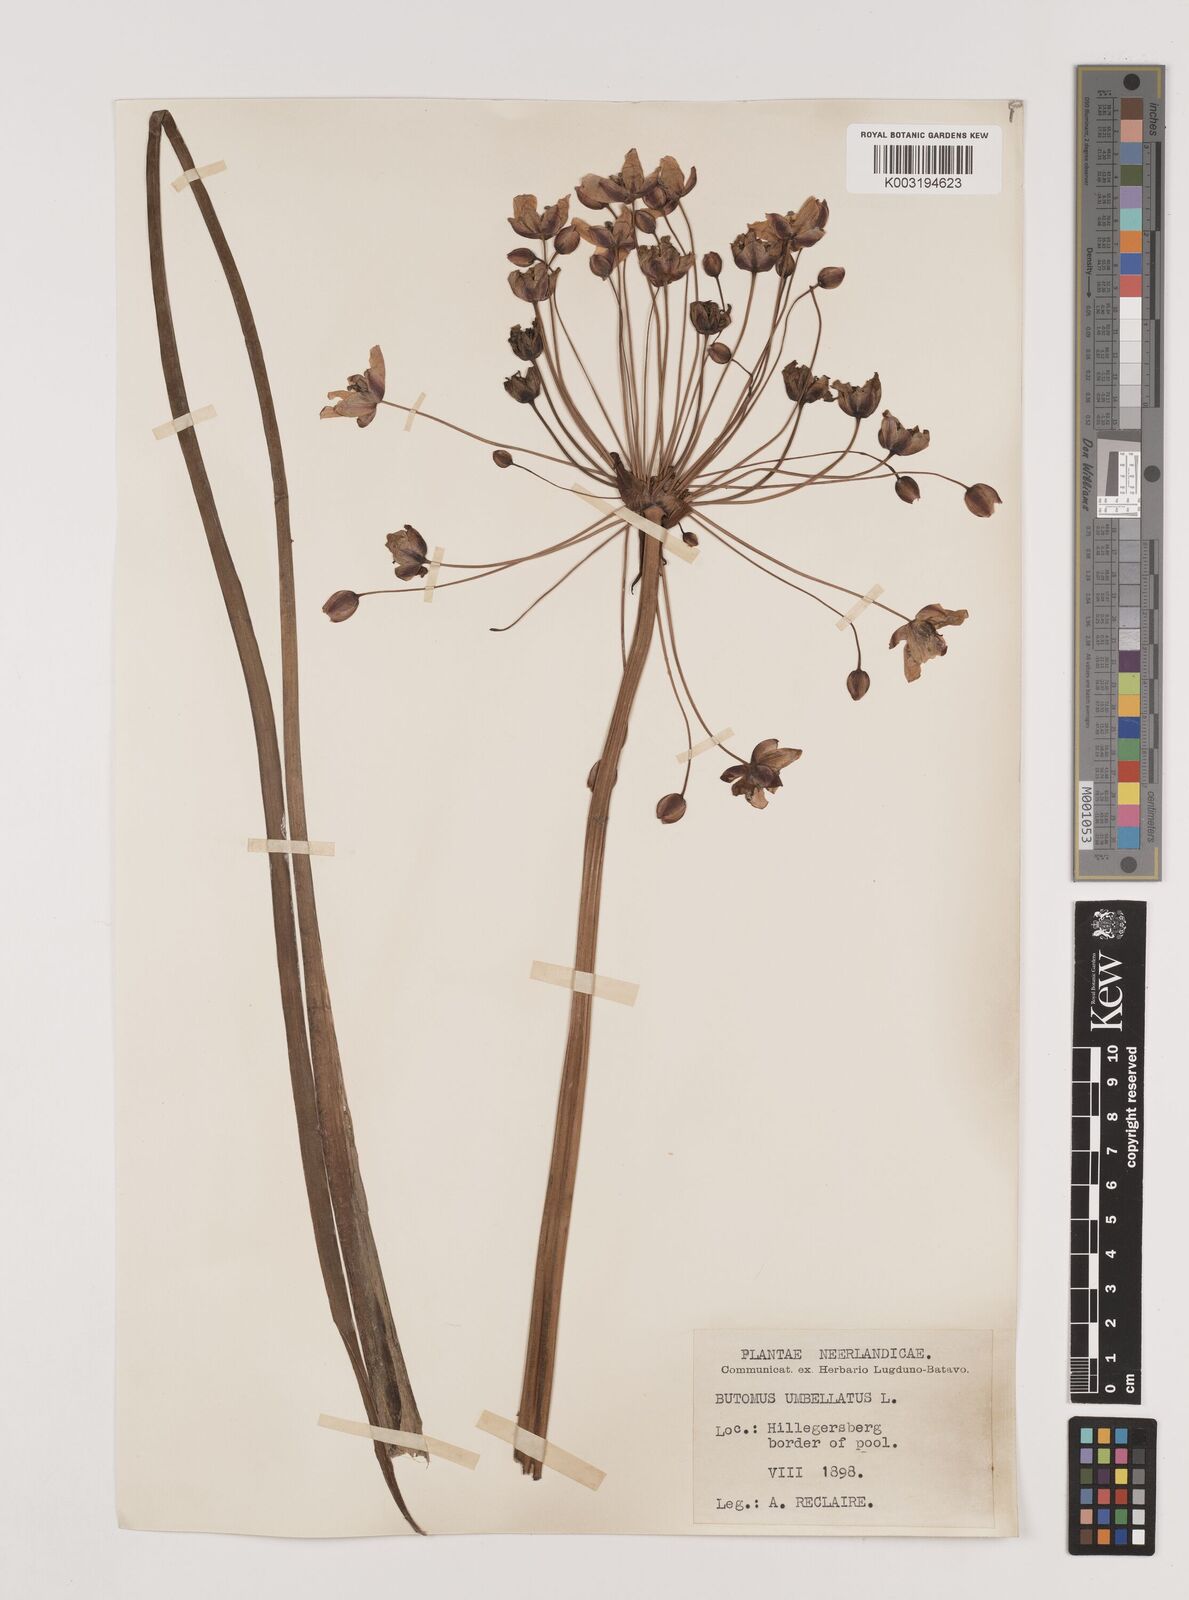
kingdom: Plantae
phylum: Tracheophyta
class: Liliopsida
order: Alismatales
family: Butomaceae
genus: Butomus
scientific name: Butomus umbellatus
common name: Flowering-rush
